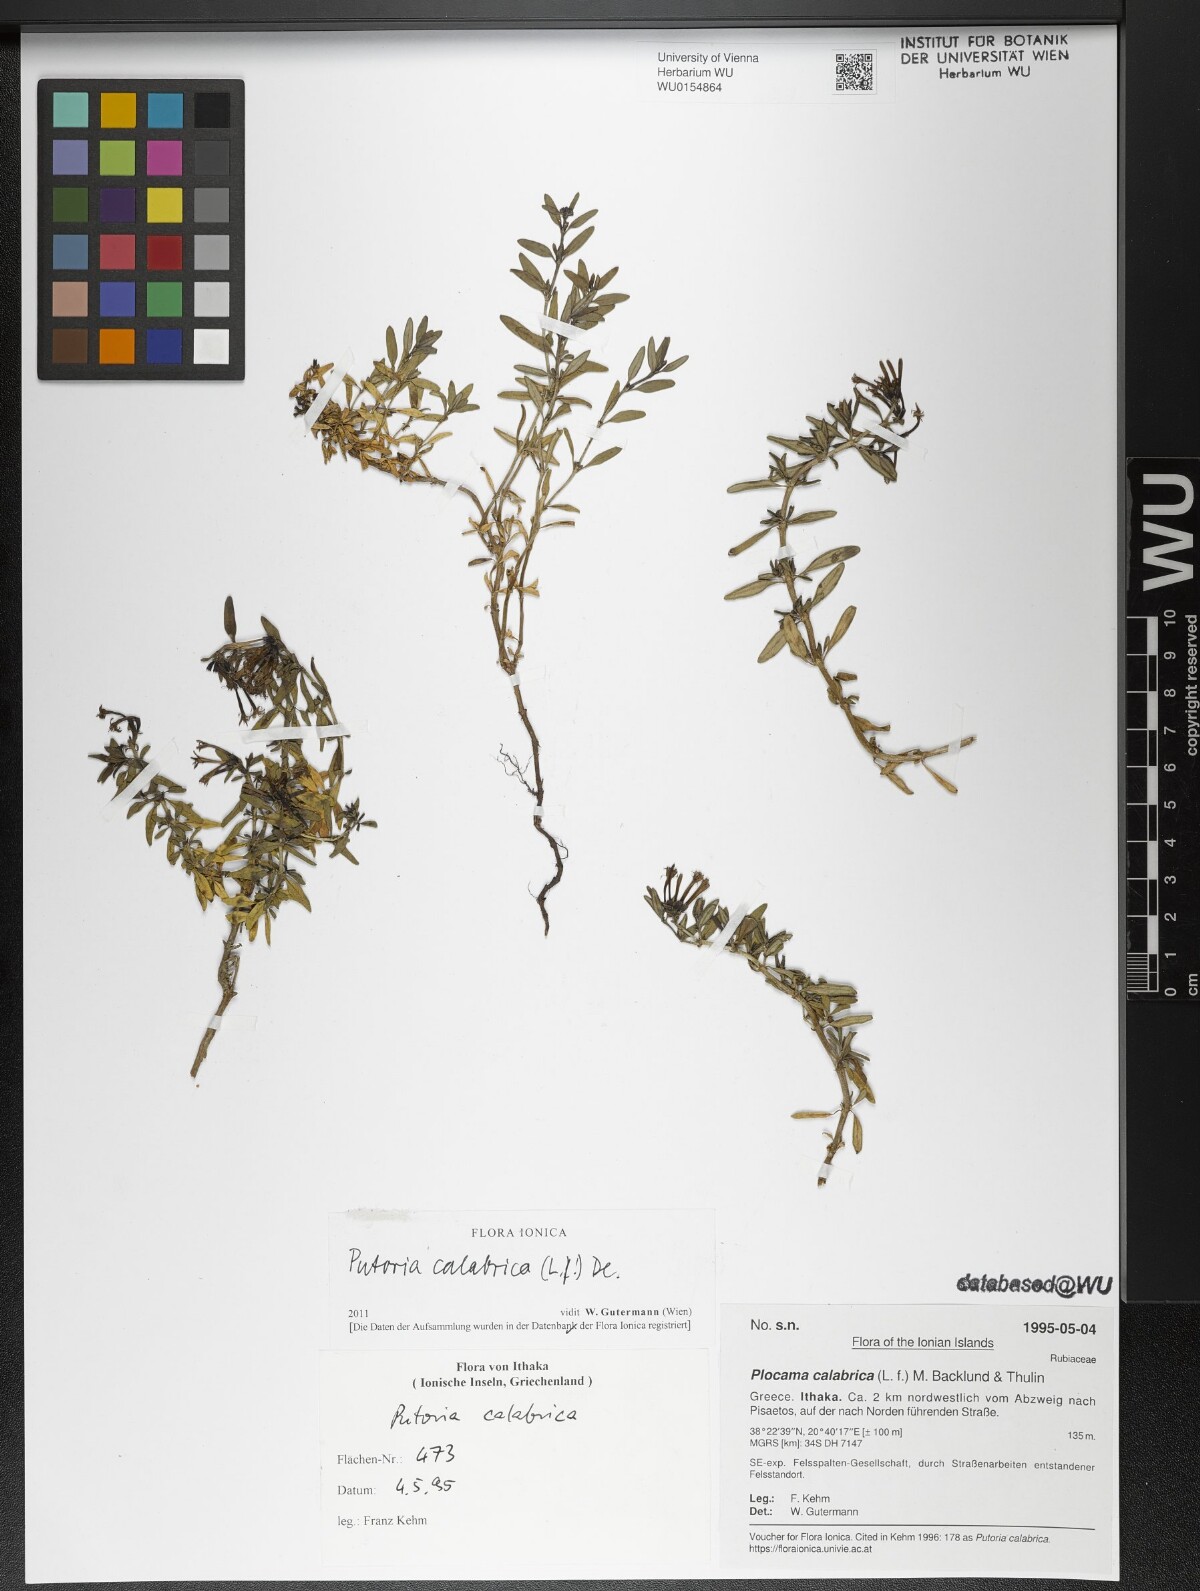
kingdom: Plantae
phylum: Tracheophyta
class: Magnoliopsida
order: Gentianales
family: Rubiaceae
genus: Plocama
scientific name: Plocama calabrica
